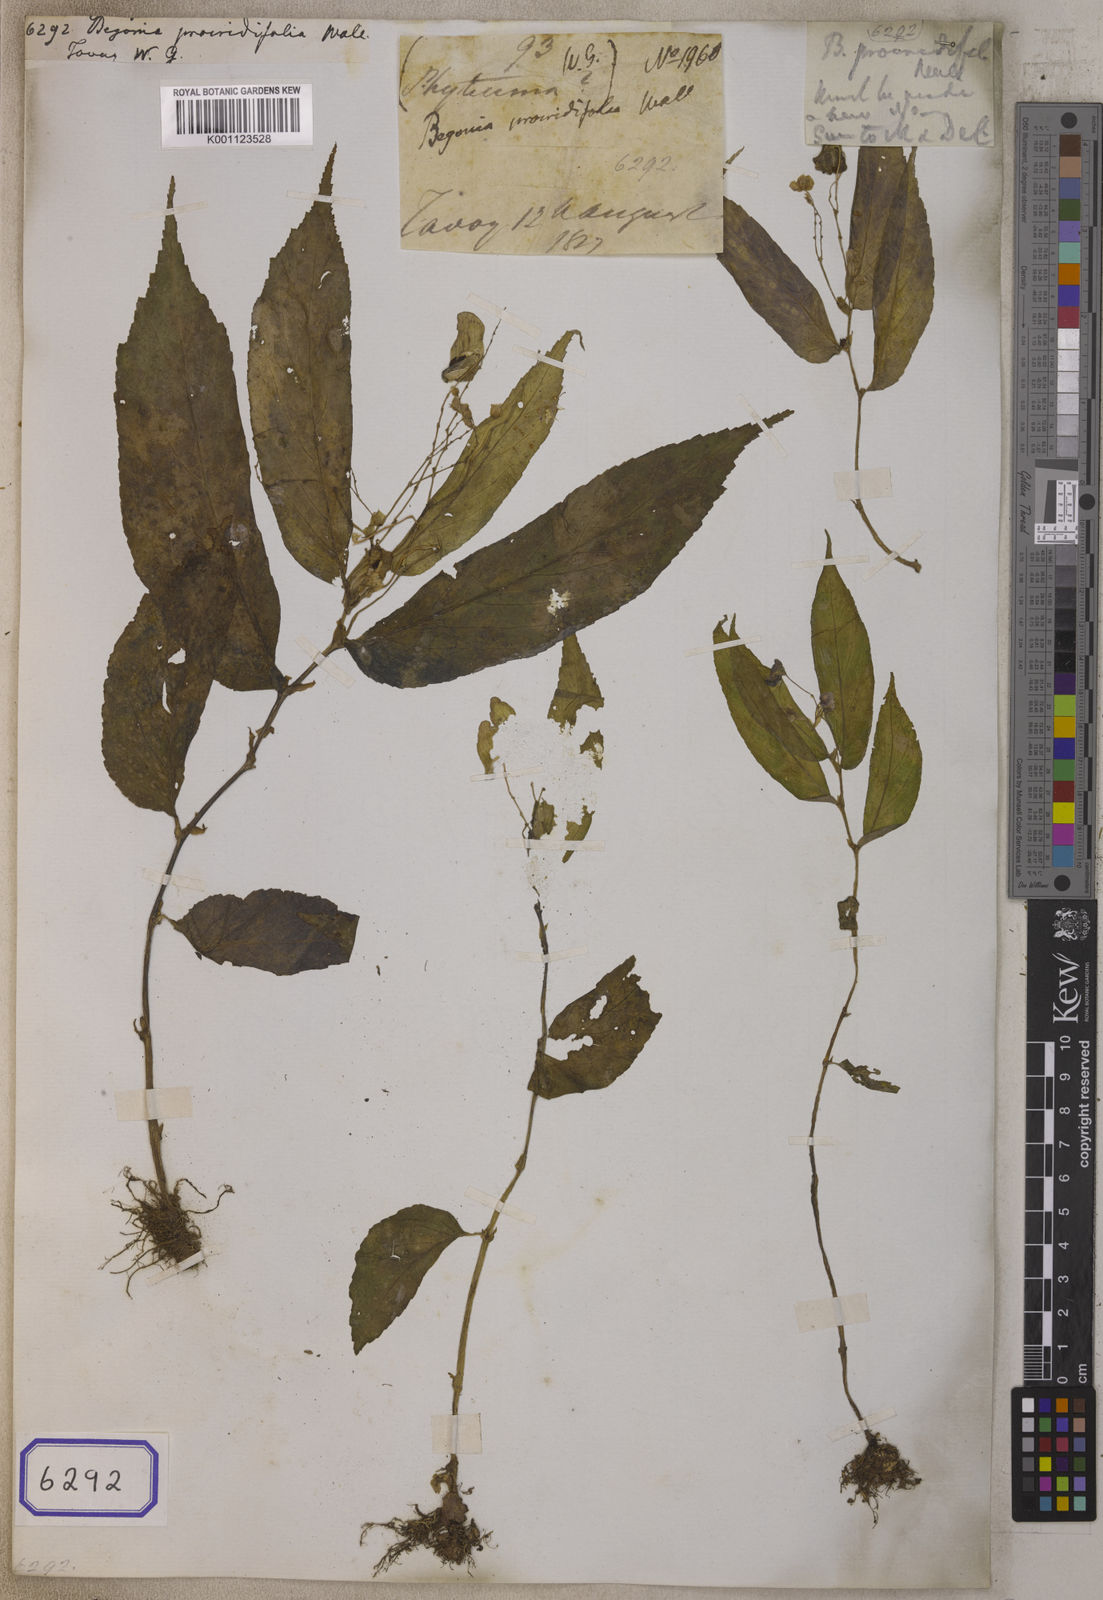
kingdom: Plantae
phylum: Tracheophyta
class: Magnoliopsida
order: Cucurbitales
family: Begoniaceae
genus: Begonia
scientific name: Begonia
